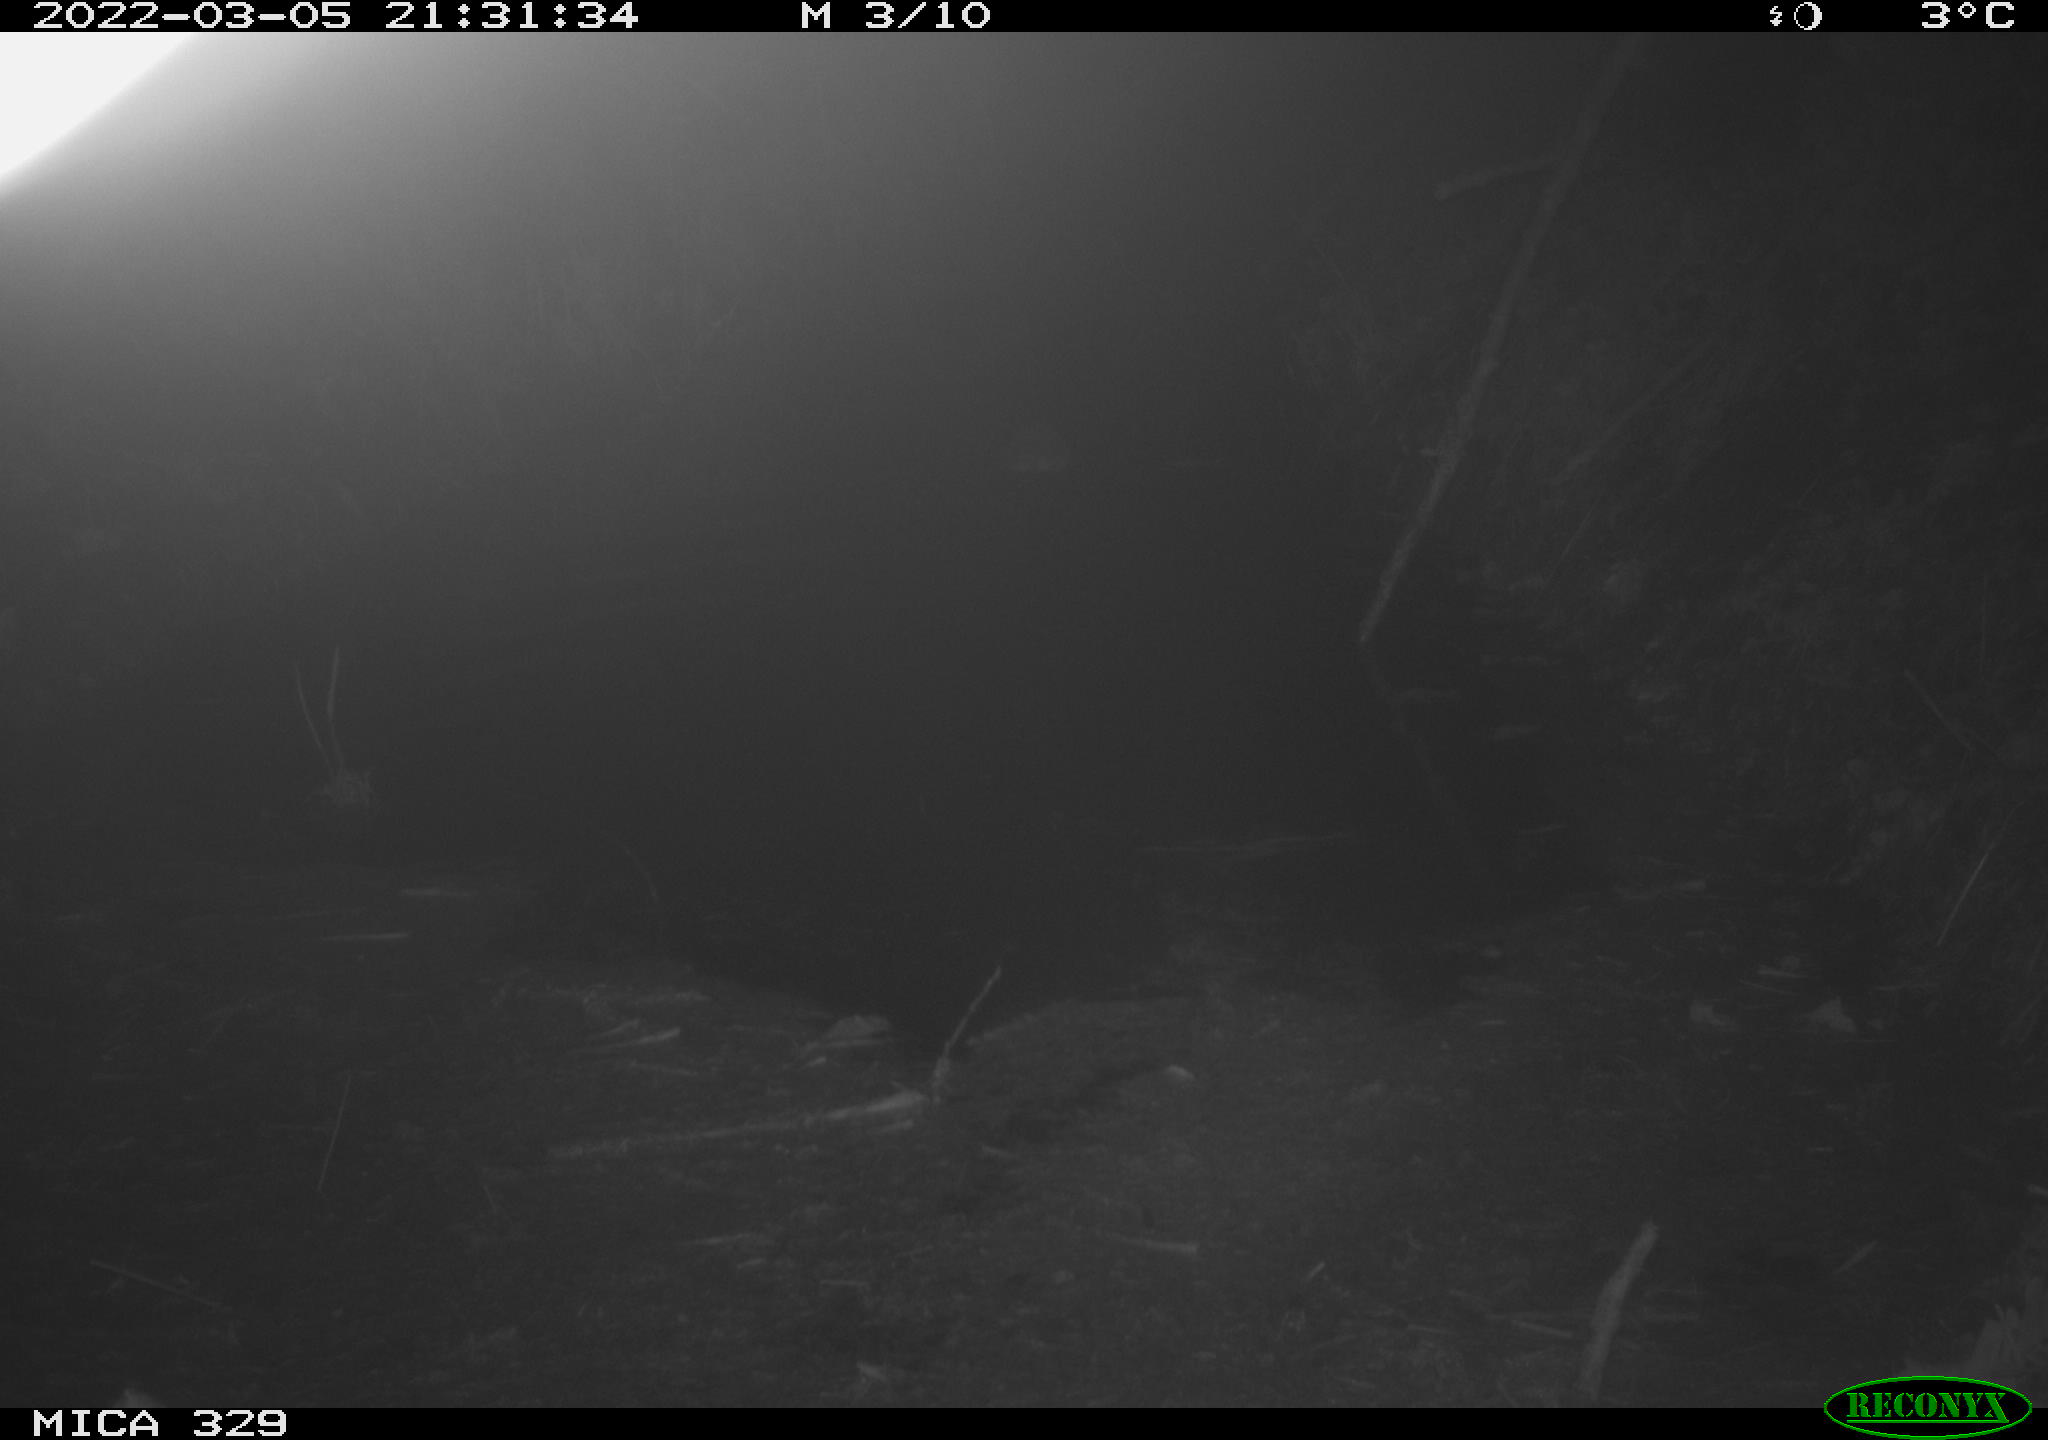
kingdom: Animalia
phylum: Chordata
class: Mammalia
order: Rodentia
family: Cricetidae
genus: Ondatra
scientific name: Ondatra zibethicus
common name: Muskrat
